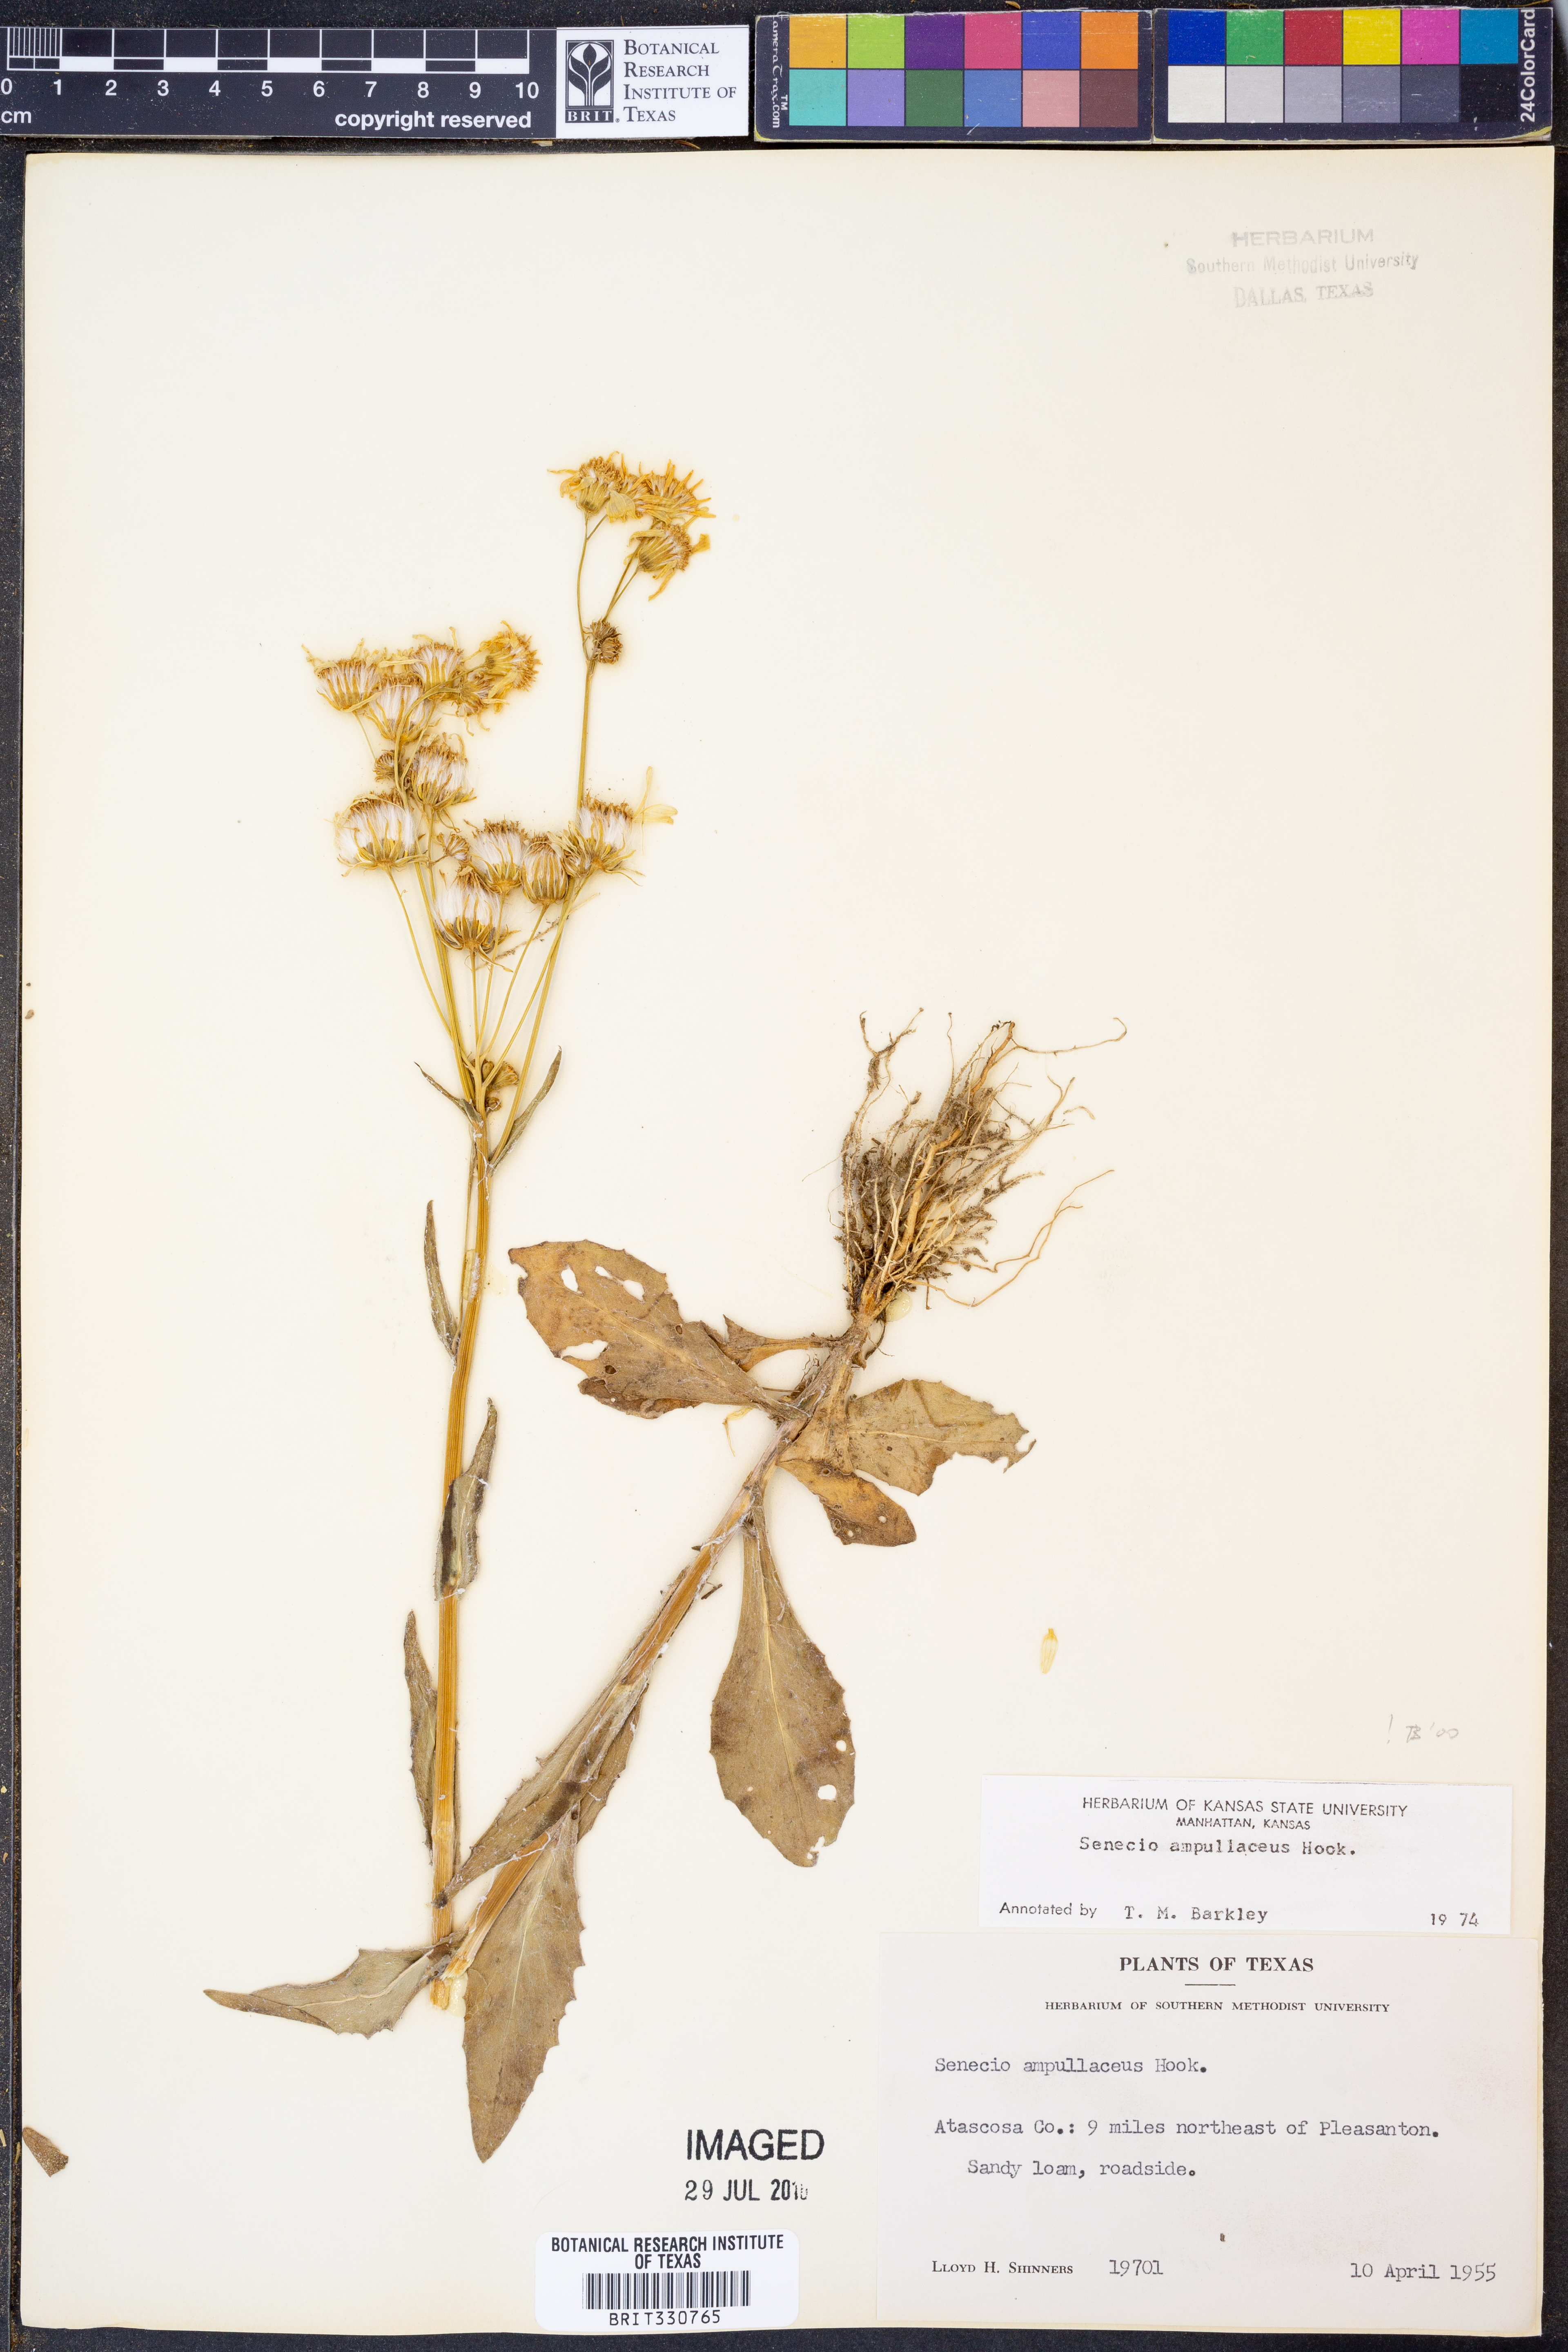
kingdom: Plantae
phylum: Tracheophyta
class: Magnoliopsida
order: Asterales
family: Asteraceae
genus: Senecio
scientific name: Senecio ampullaceus
